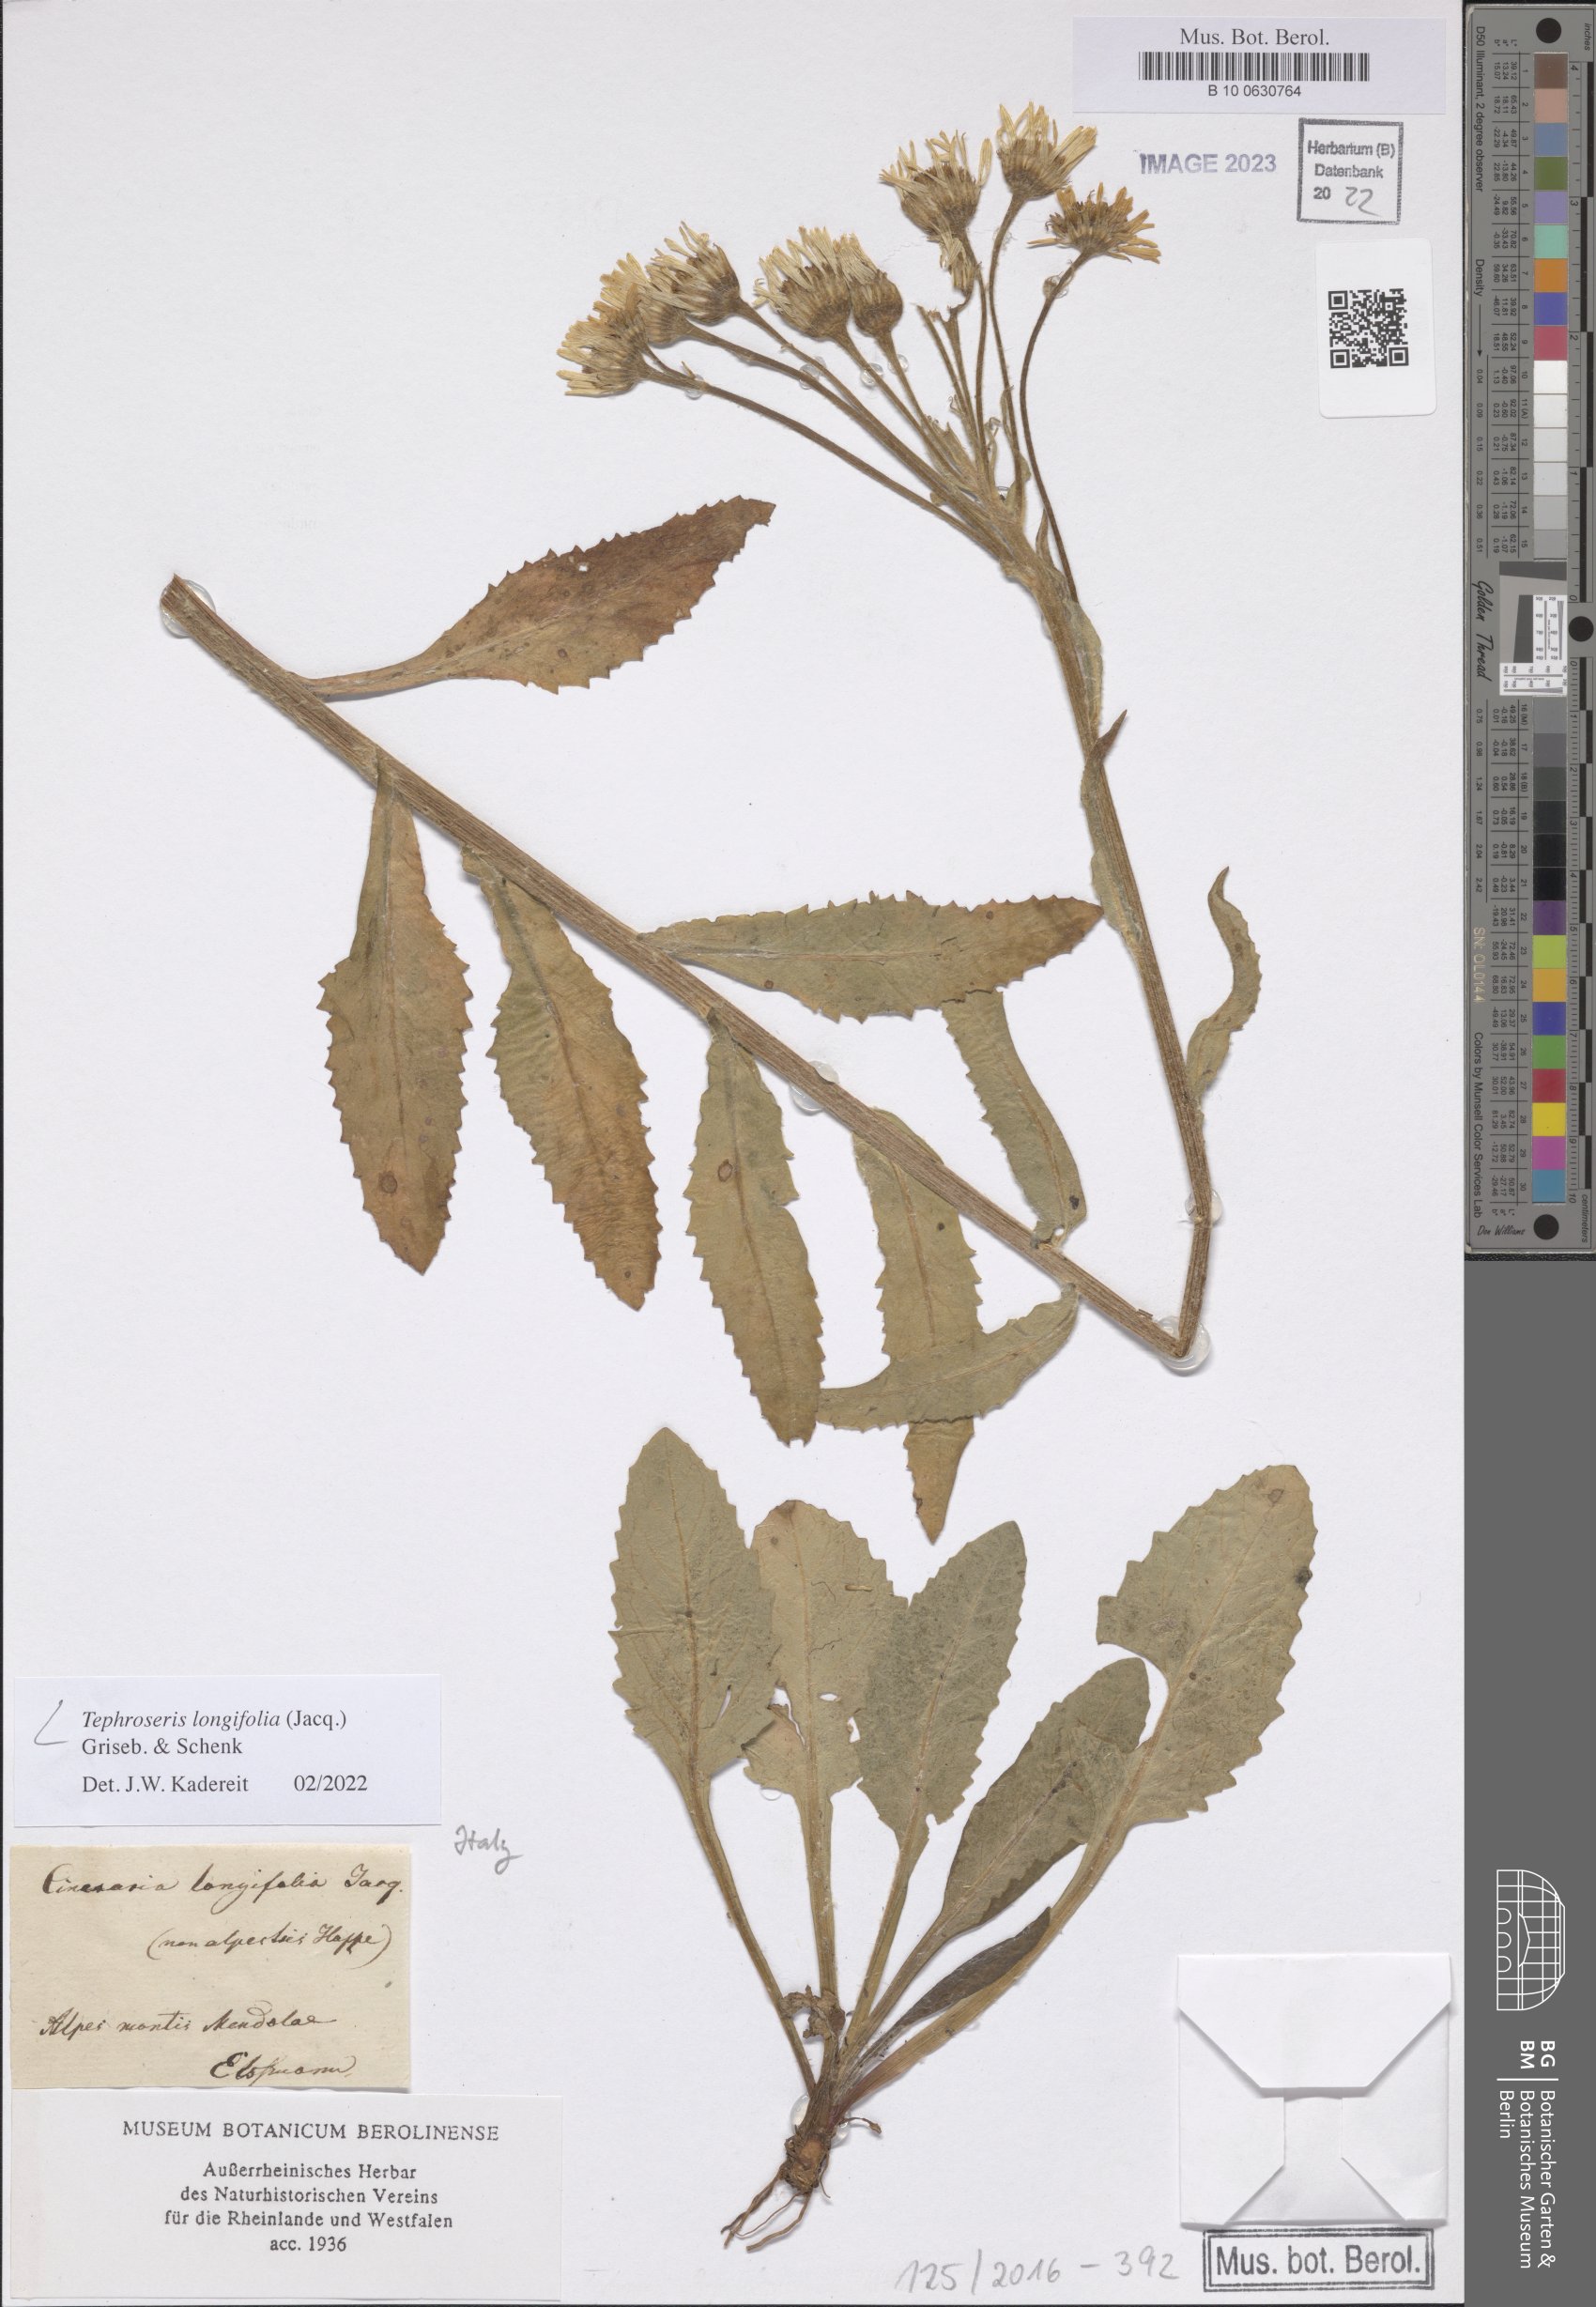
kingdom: Plantae
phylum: Tracheophyta
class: Magnoliopsida
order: Asterales
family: Asteraceae
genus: Tephroseris
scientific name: Tephroseris longifolia
